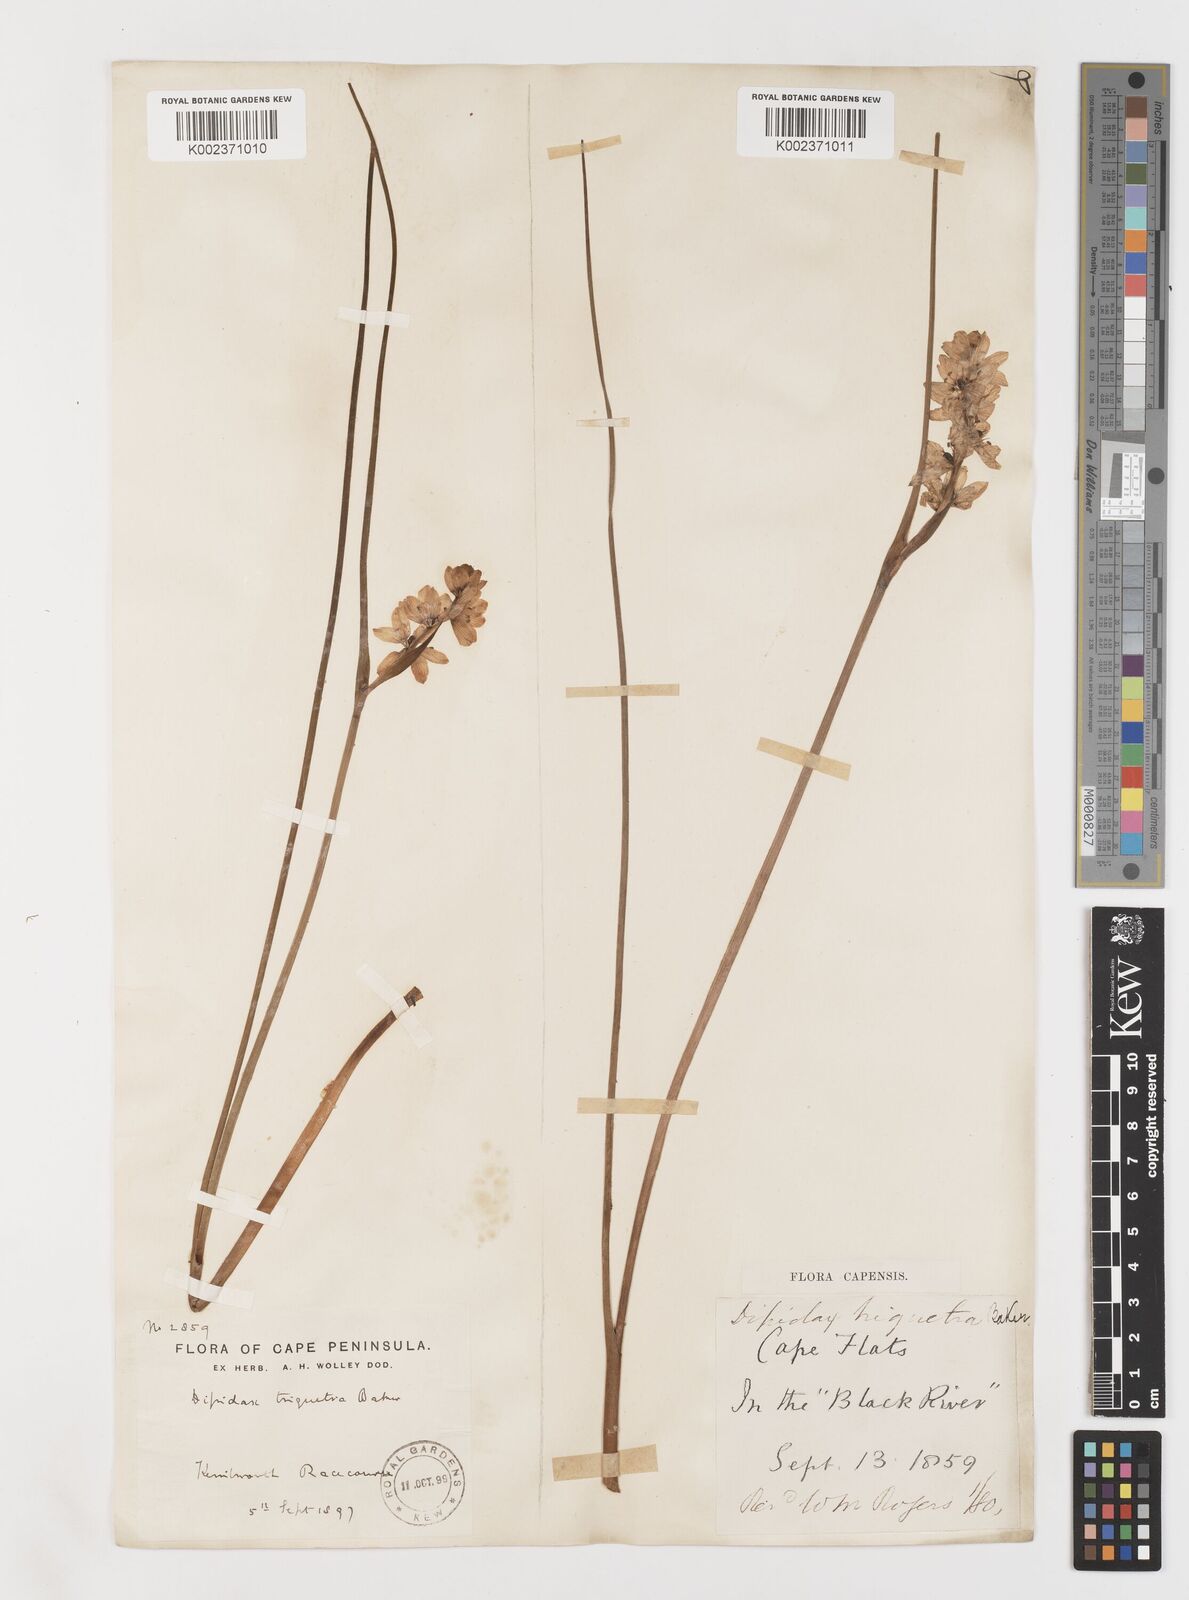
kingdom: Plantae
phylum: Tracheophyta
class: Liliopsida
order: Liliales
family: Colchicaceae
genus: Wurmbea
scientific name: Wurmbea stricta
